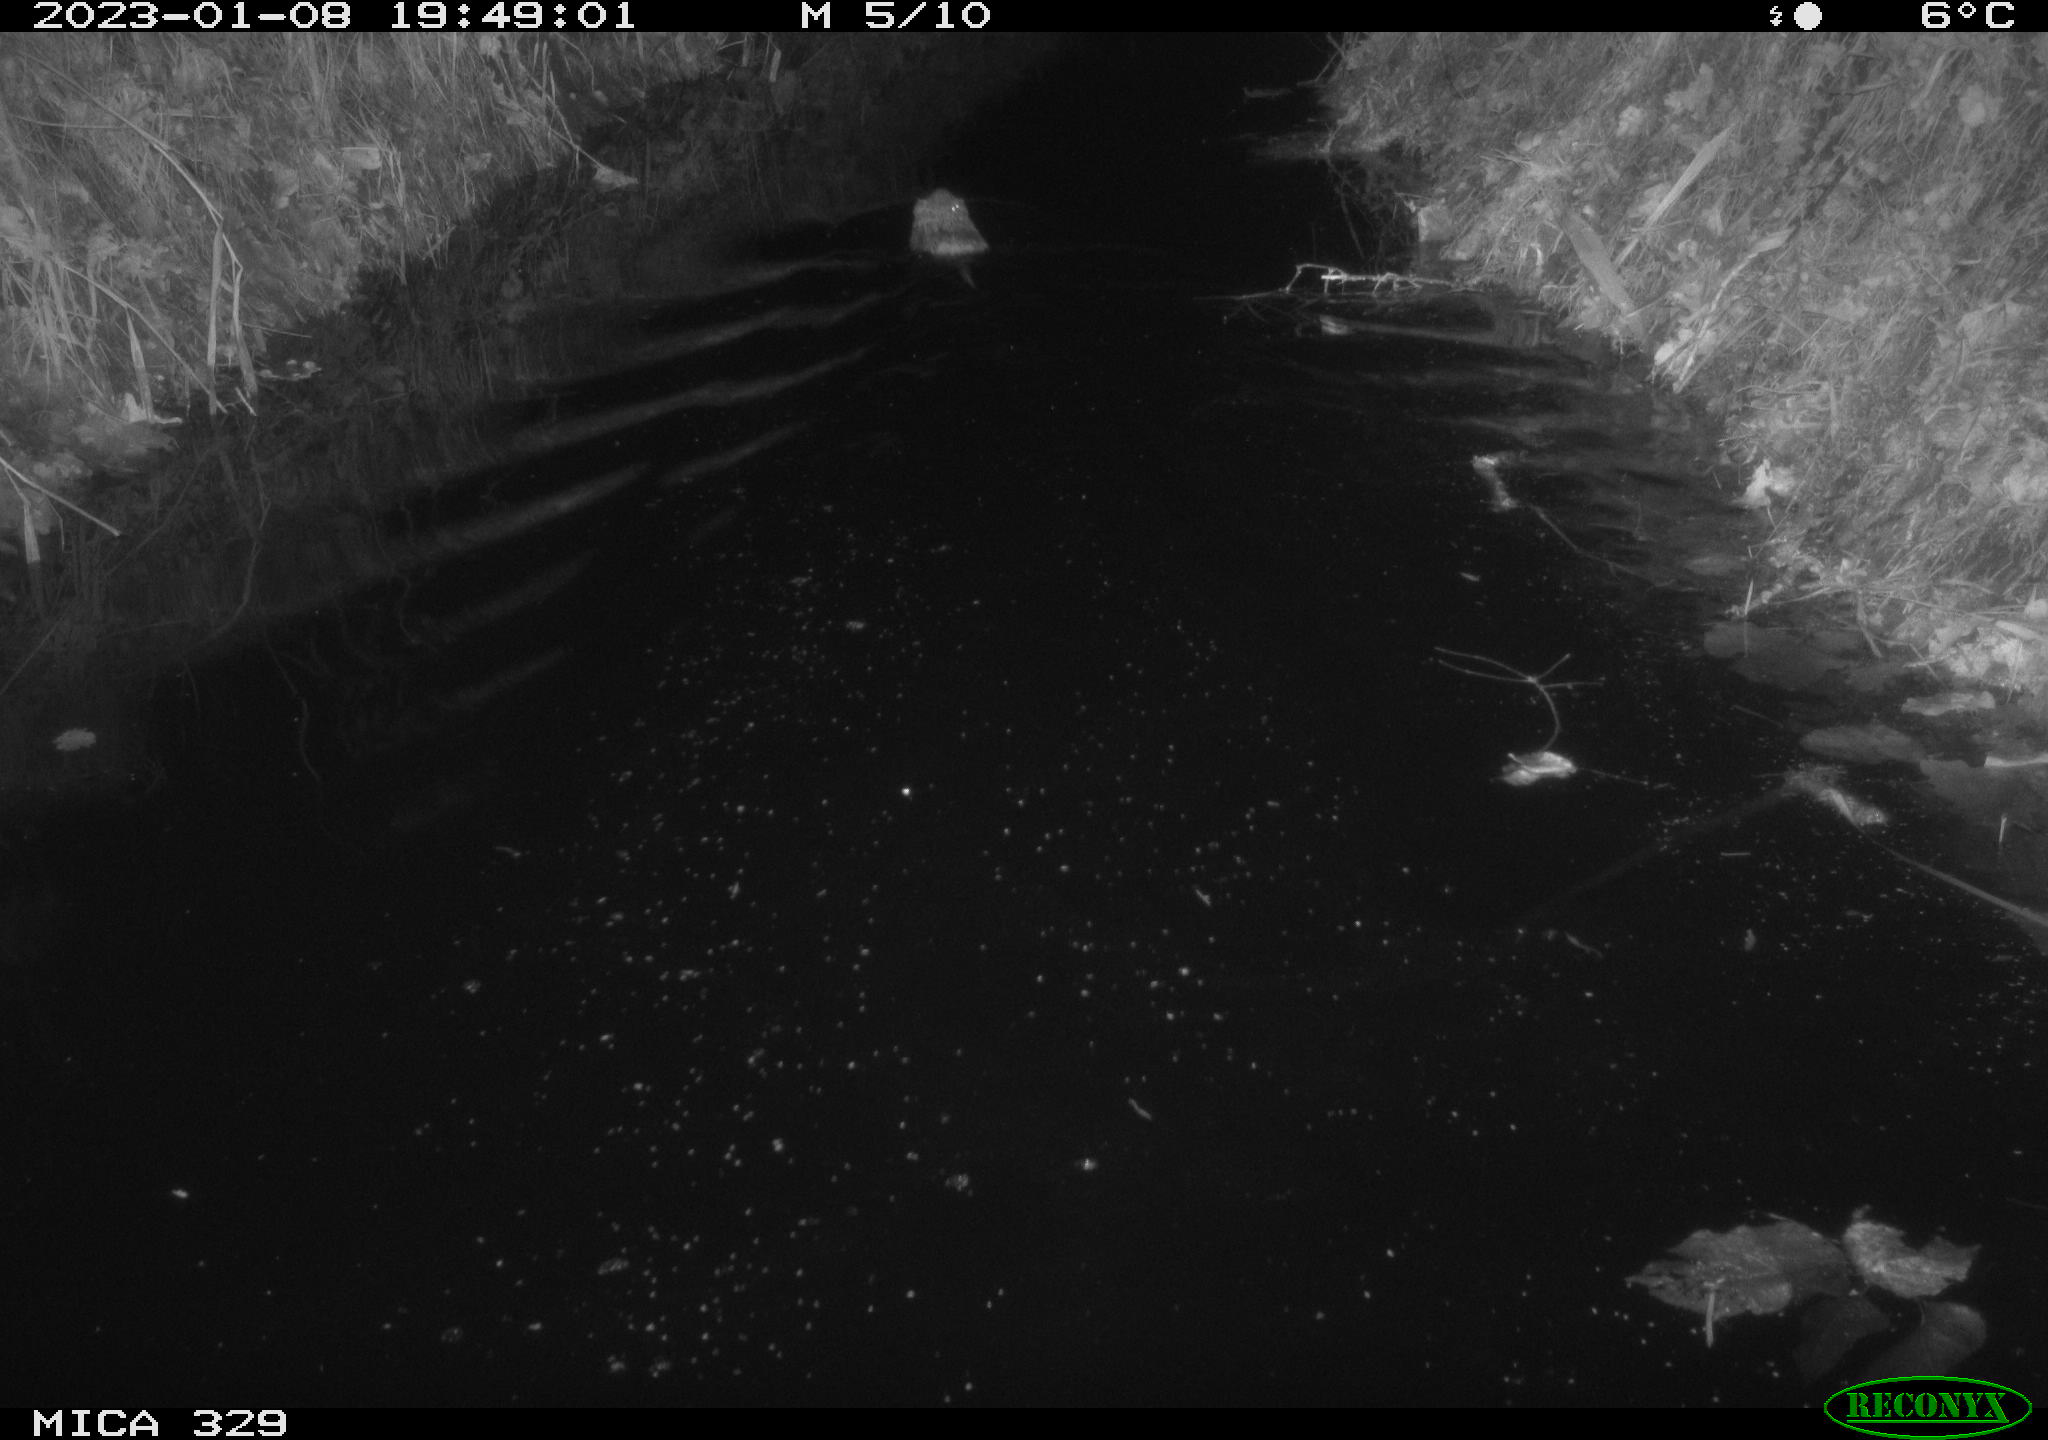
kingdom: Animalia
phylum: Chordata
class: Mammalia
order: Rodentia
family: Cricetidae
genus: Ondatra
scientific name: Ondatra zibethicus
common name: Muskrat
